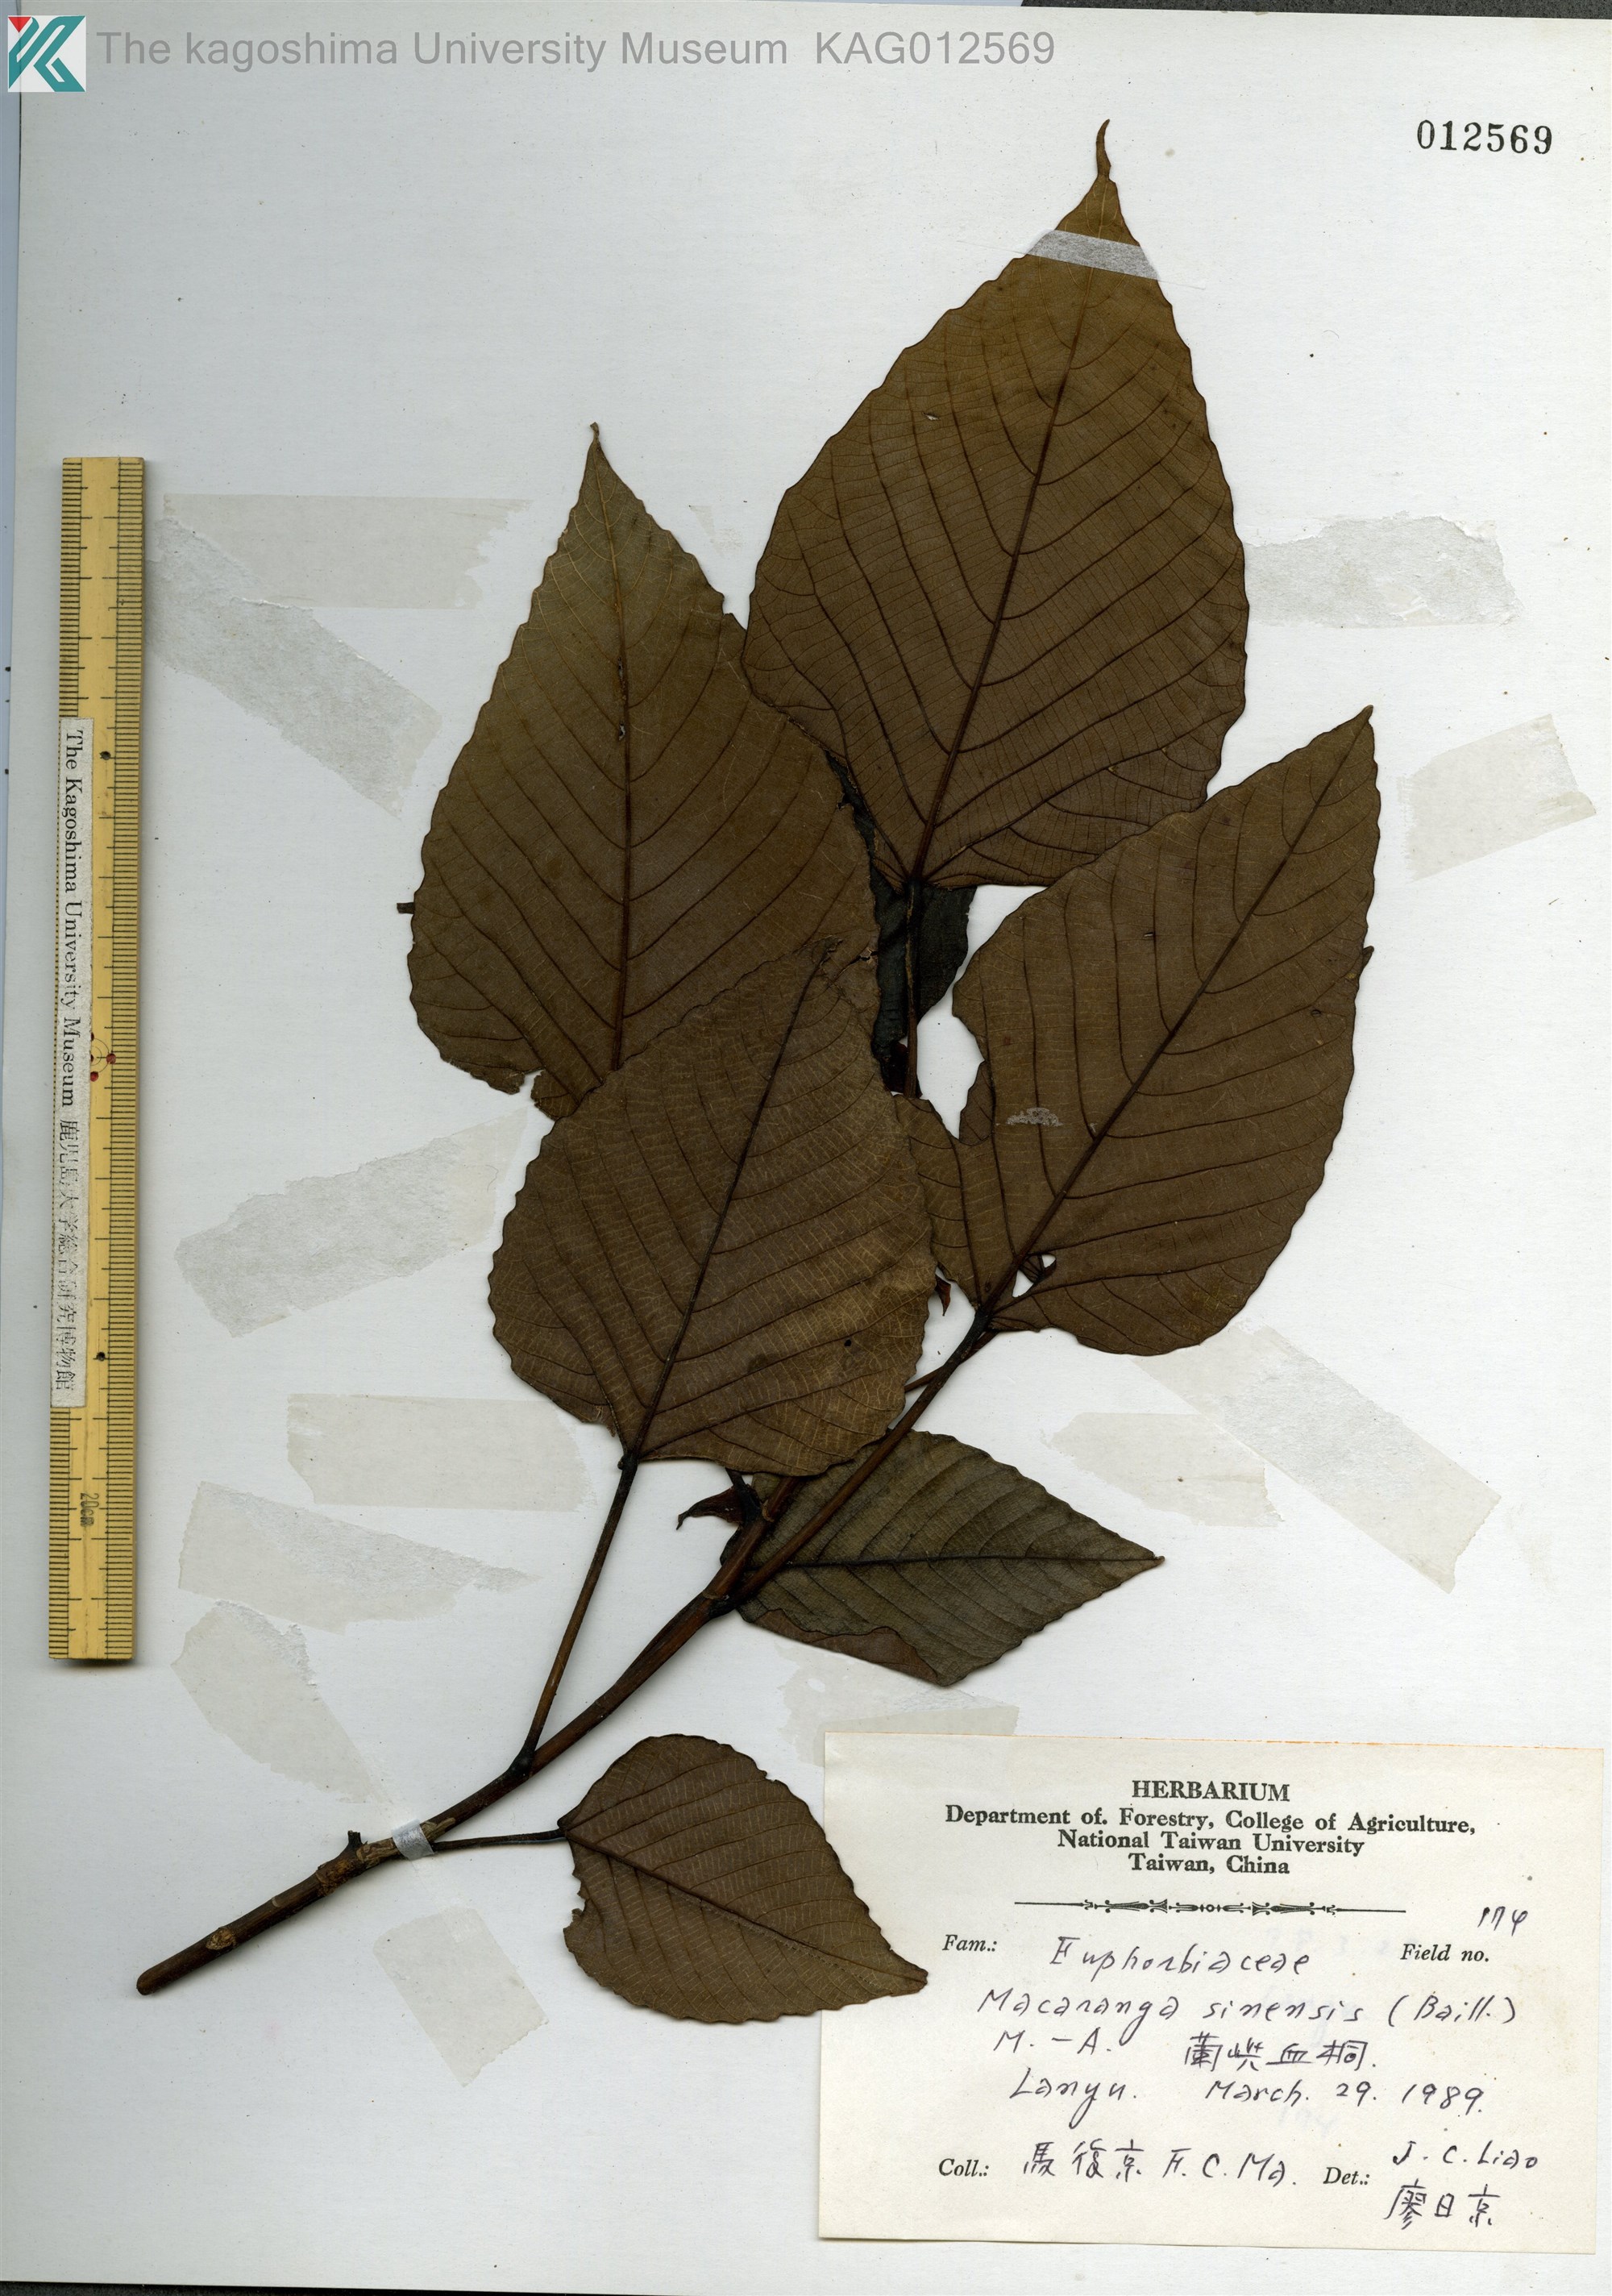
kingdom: Plantae
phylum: Tracheophyta
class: Magnoliopsida
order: Malpighiales
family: Euphorbiaceae
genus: Macaranga
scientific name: Macaranga sinensis
